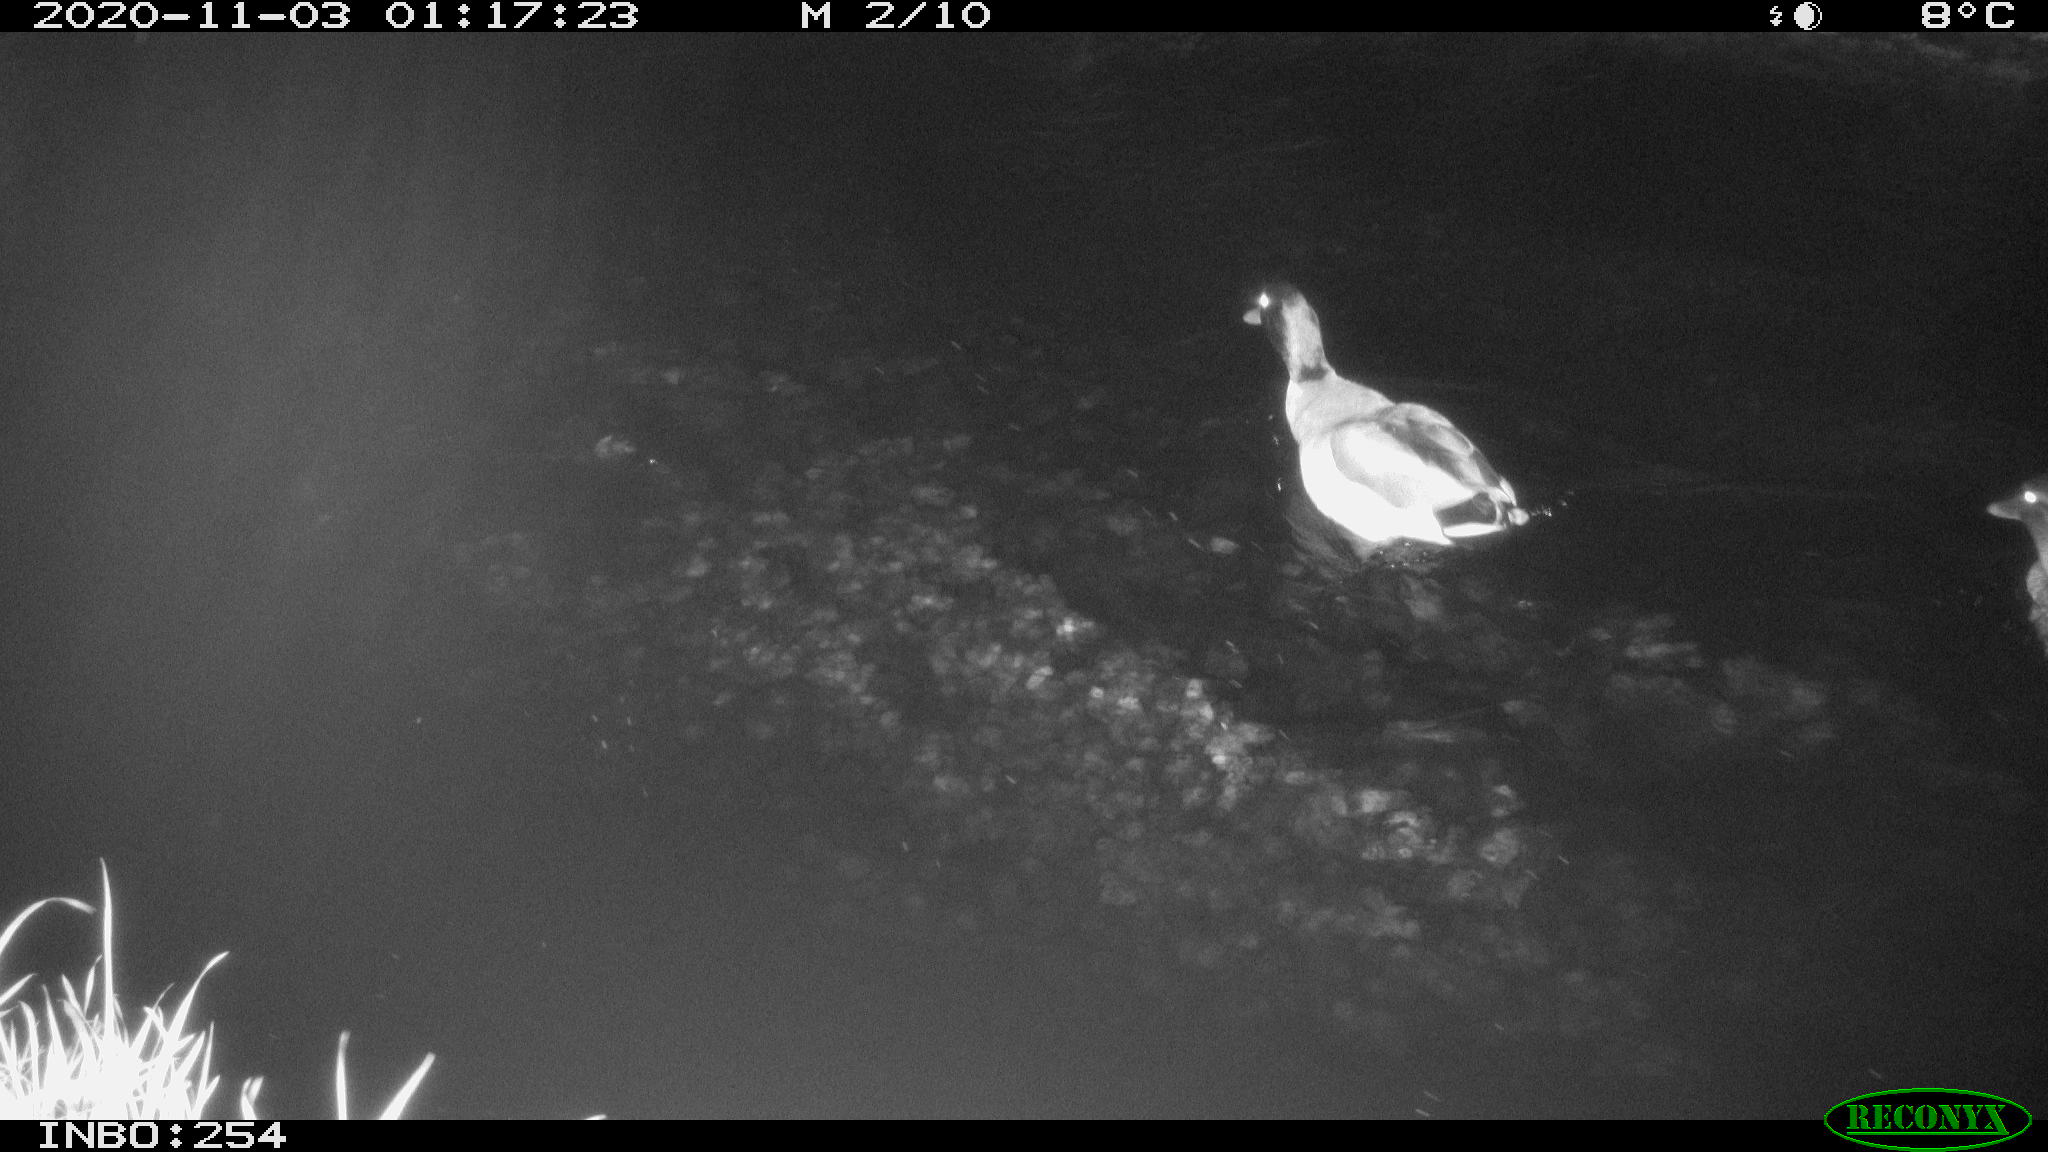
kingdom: Animalia
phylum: Chordata
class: Aves
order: Anseriformes
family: Anatidae
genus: Anas
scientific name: Anas platyrhynchos
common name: Mallard
